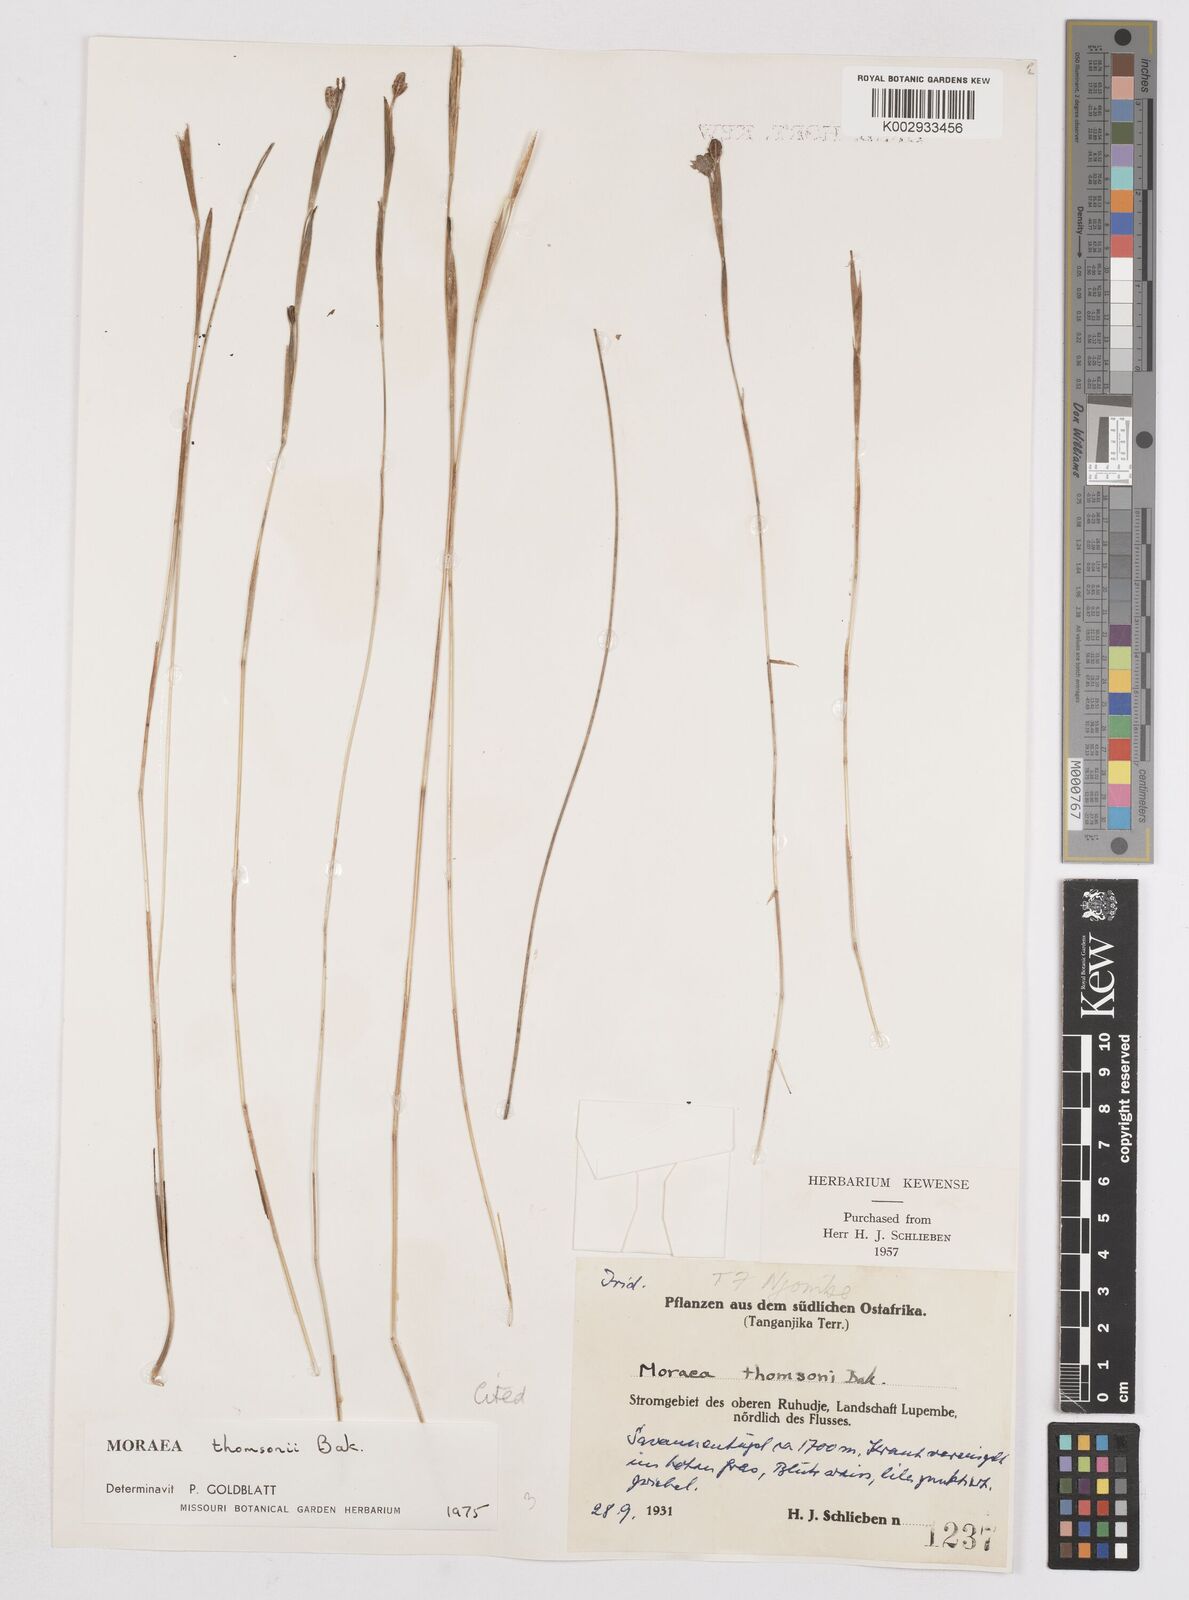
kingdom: Plantae
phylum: Tracheophyta
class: Liliopsida
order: Asparagales
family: Iridaceae
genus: Moraea
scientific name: Moraea stricta
